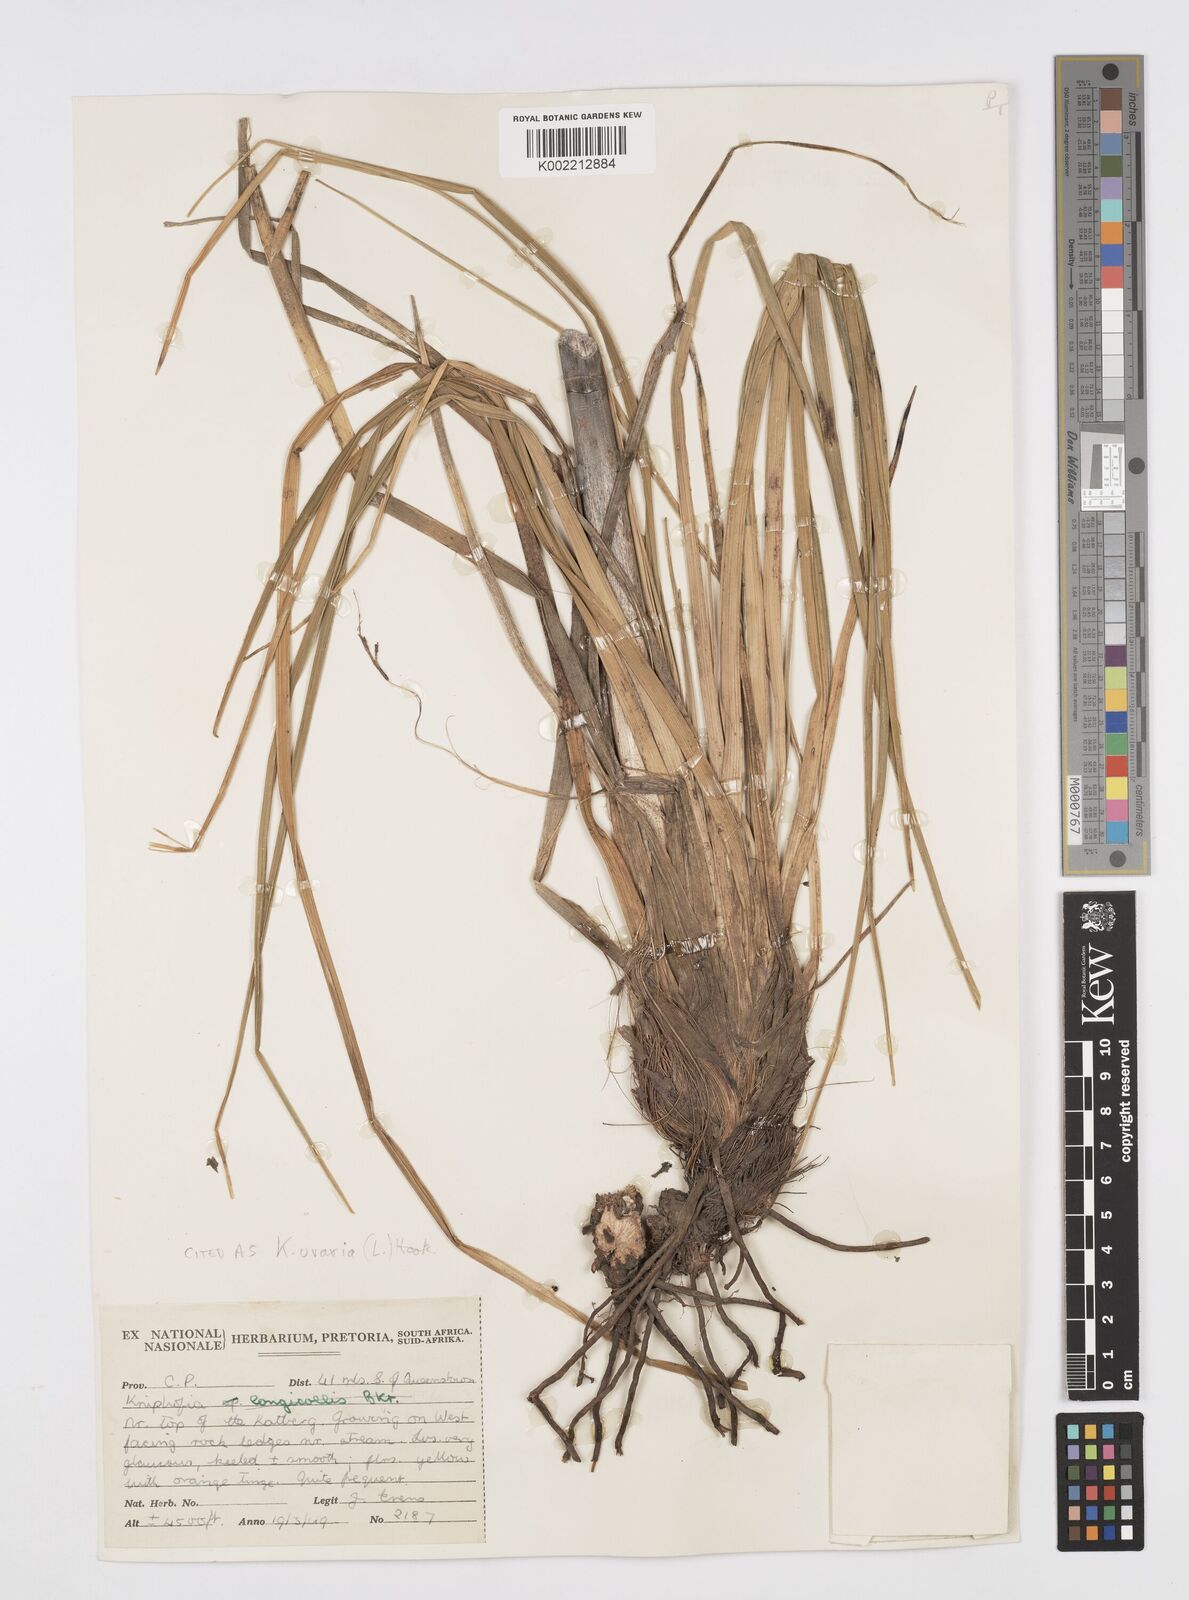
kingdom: Plantae
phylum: Tracheophyta
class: Liliopsida
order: Asparagales
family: Asphodelaceae
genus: Kniphofia
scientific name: Kniphofia uvaria
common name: Red-hot-poker
